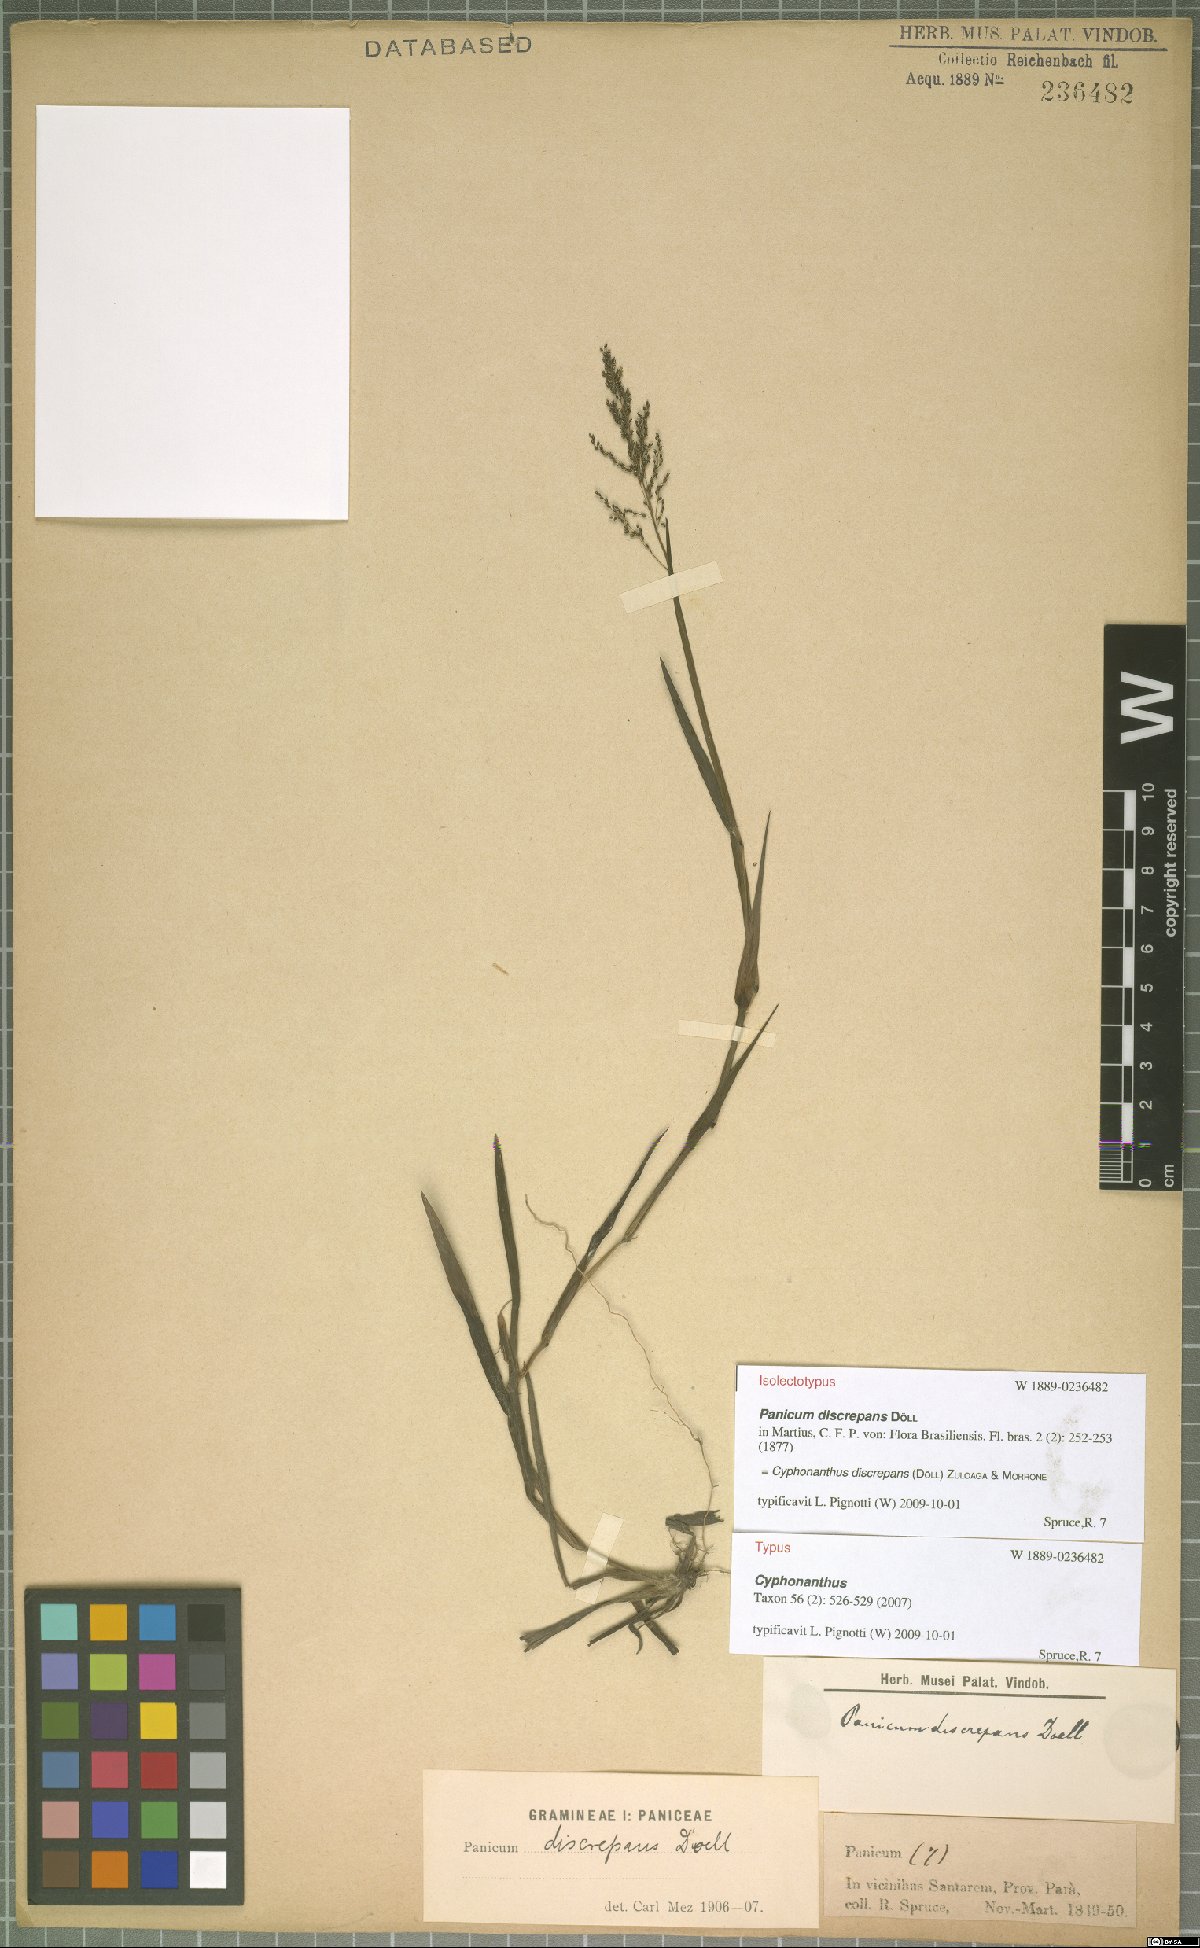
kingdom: Plantae
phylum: Tracheophyta
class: Liliopsida
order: Poales
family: Poaceae
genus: Cyphonanthus
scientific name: Cyphonanthus discrepans
